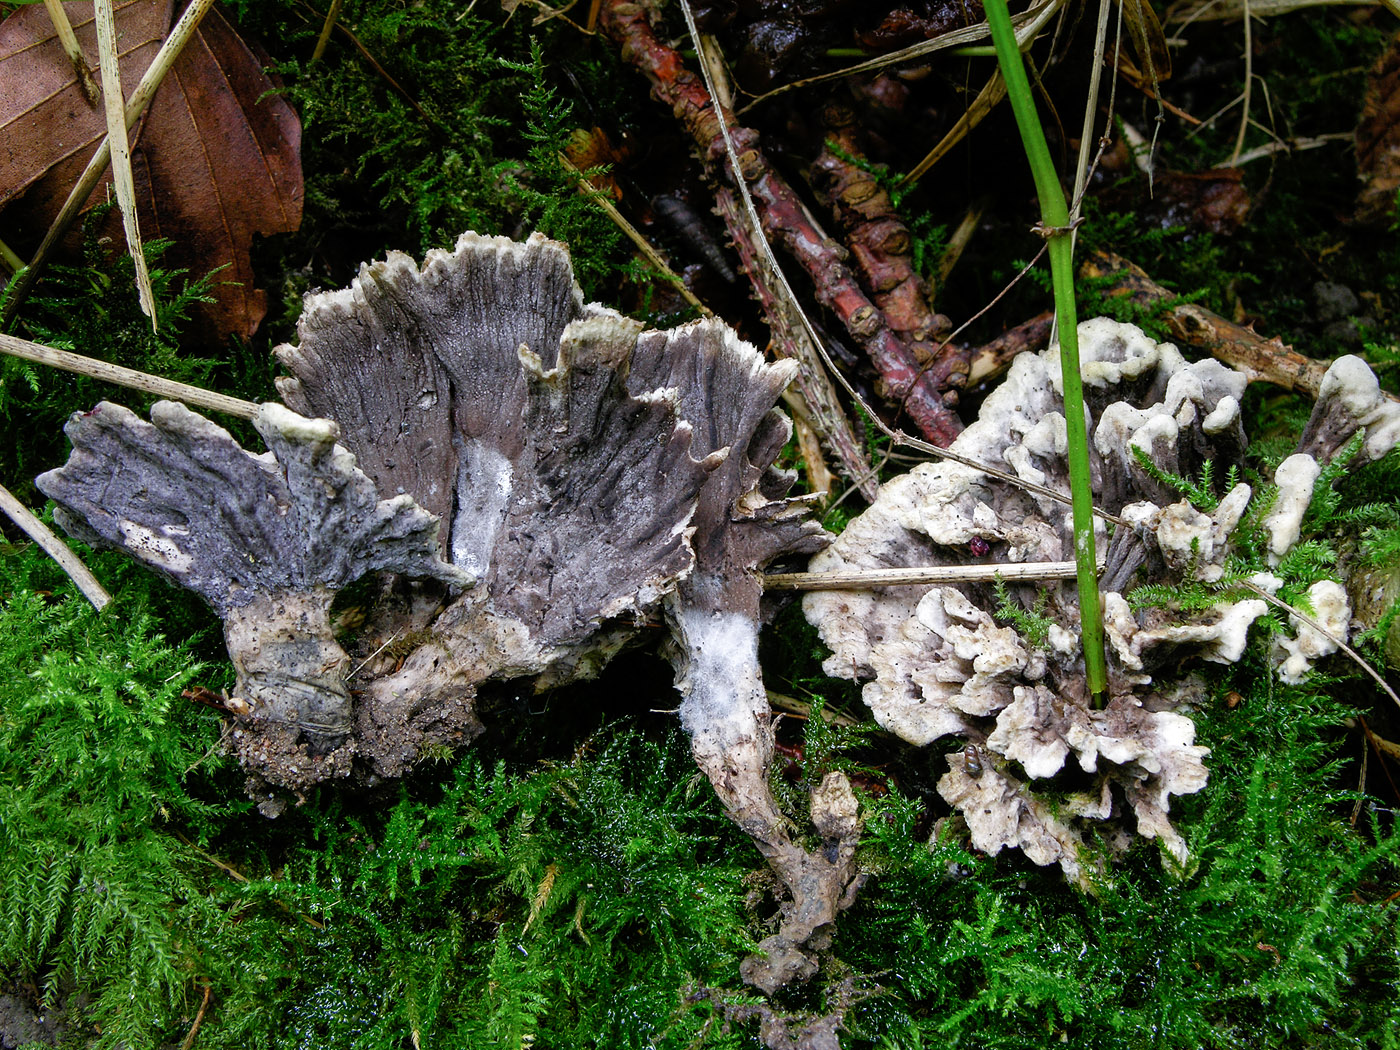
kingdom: Fungi
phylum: Basidiomycota
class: Agaricomycetes
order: Thelephorales
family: Thelephoraceae
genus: Thelephora
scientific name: Thelephora atra
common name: sort frynsesvamp
